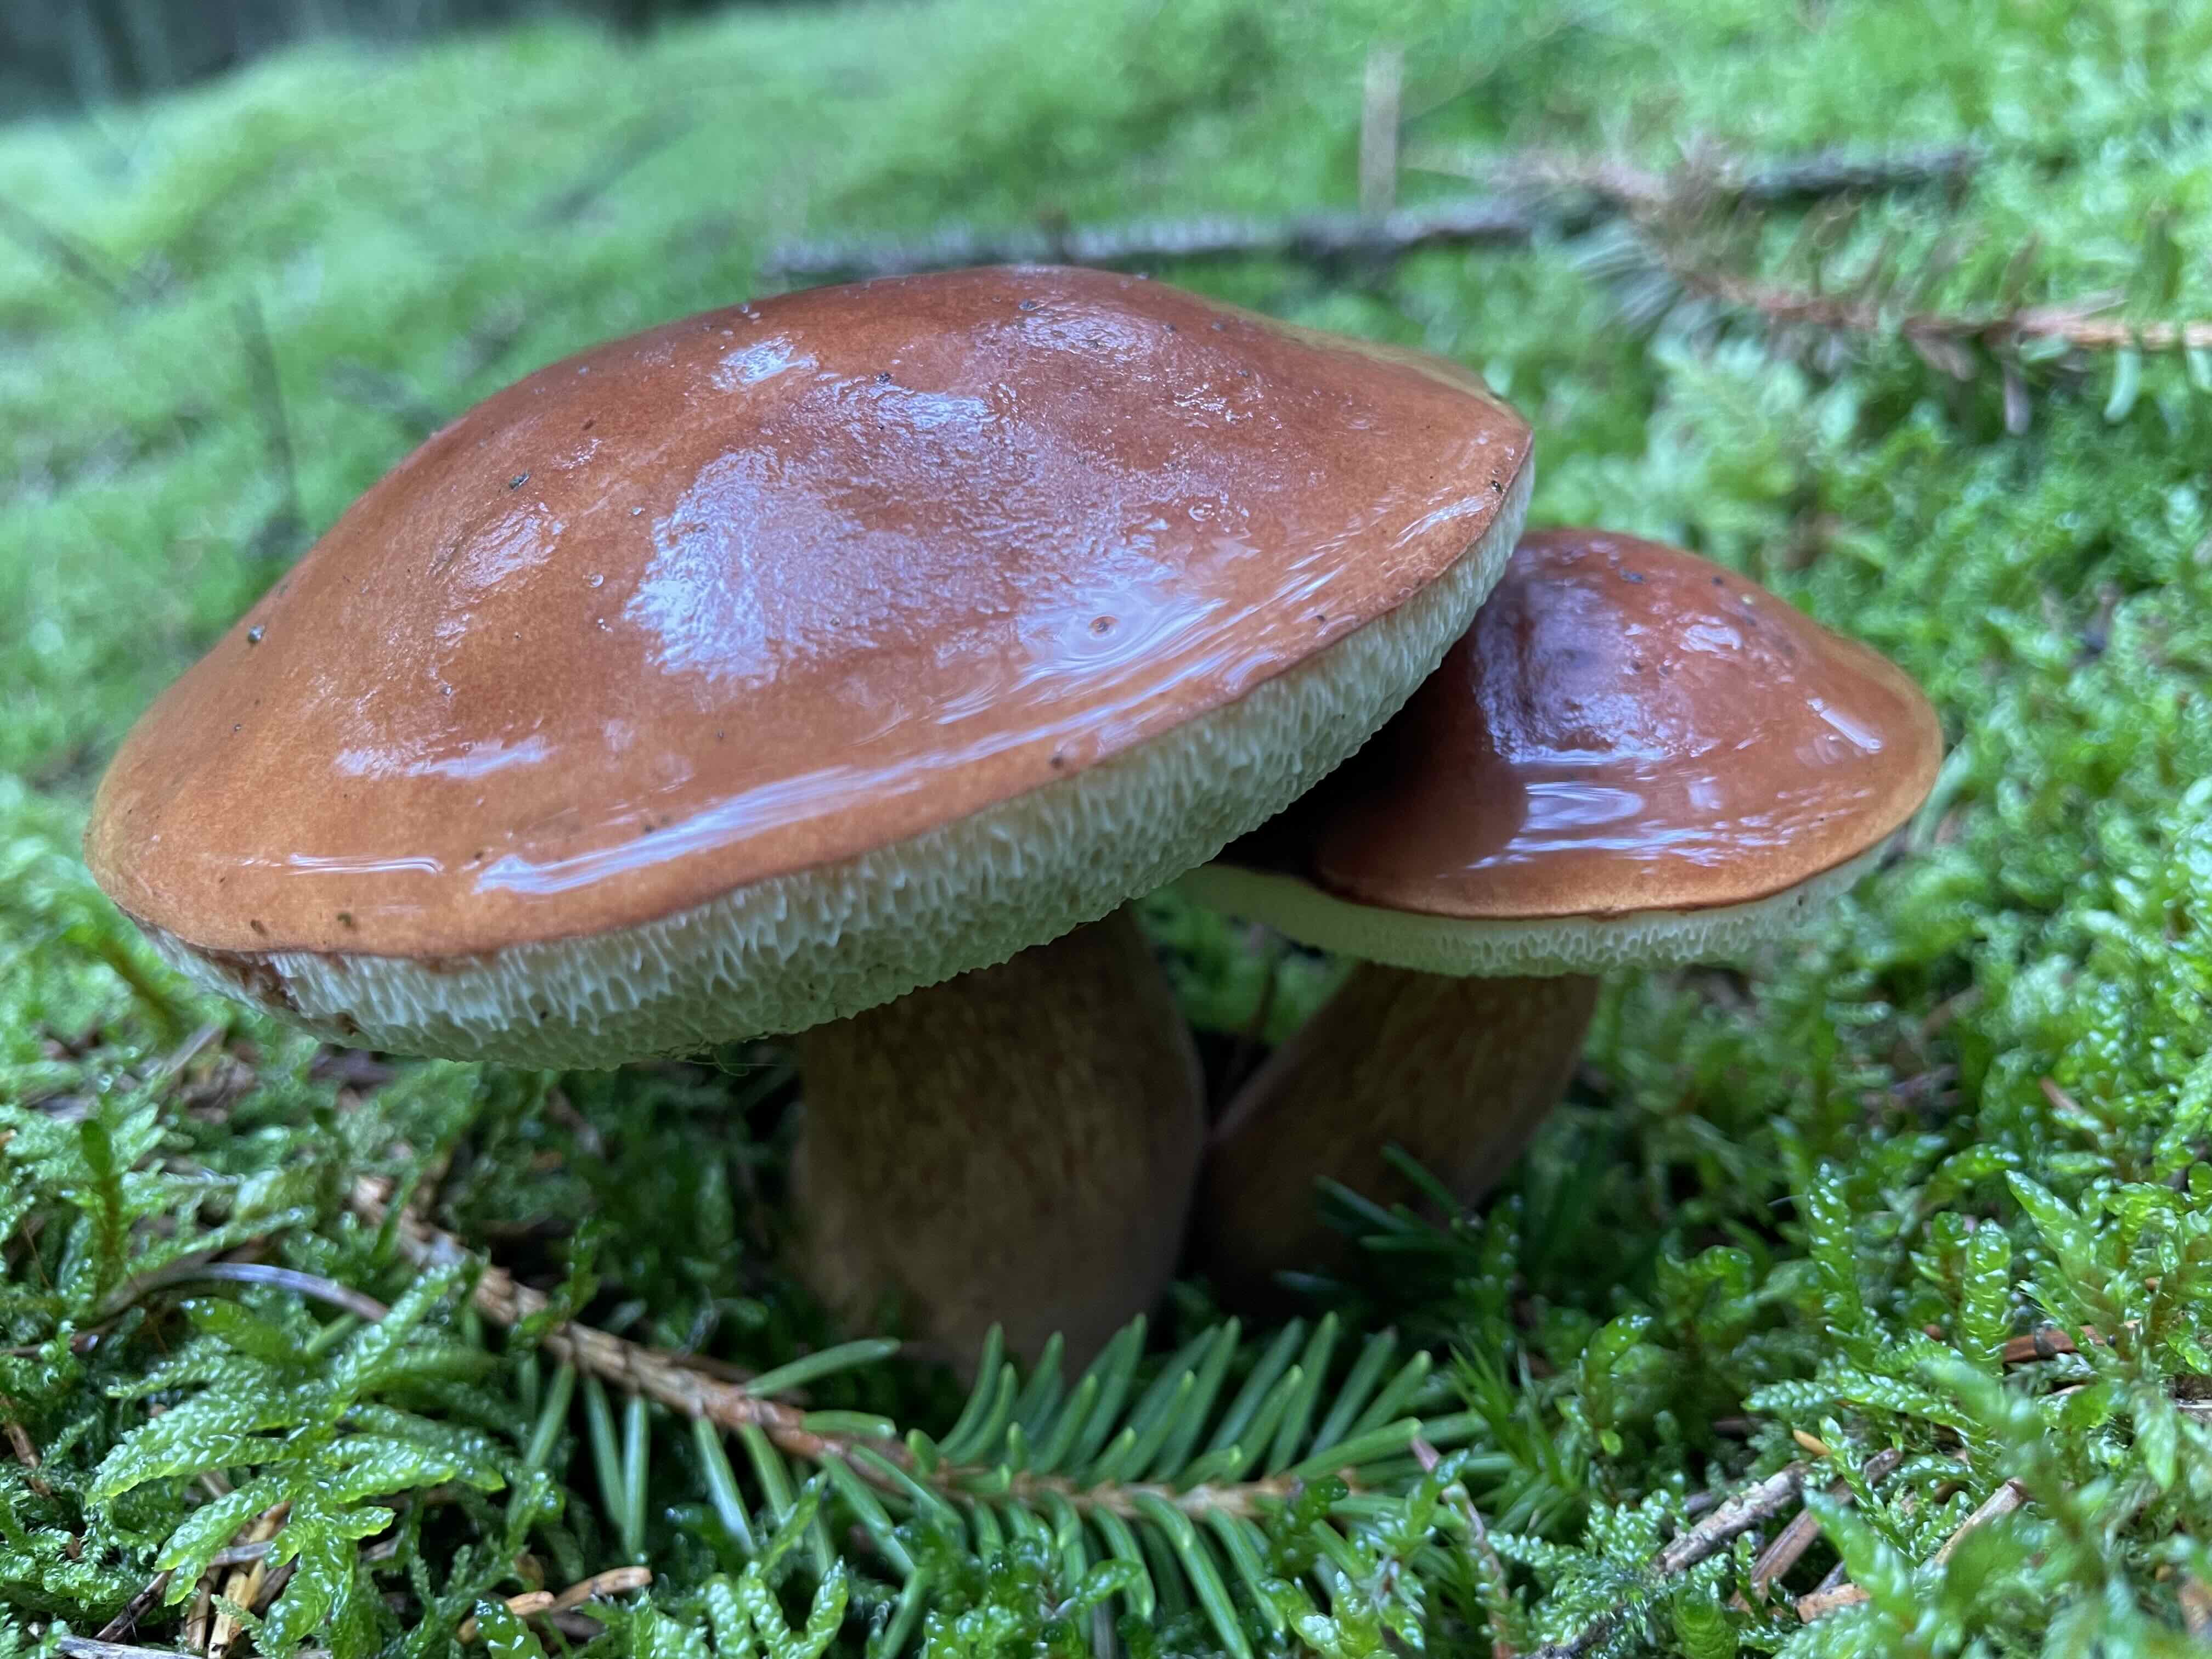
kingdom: Fungi
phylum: Basidiomycota
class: Agaricomycetes
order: Boletales
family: Boletaceae
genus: Imleria
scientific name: Imleria badia
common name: brunstokket rørhat
